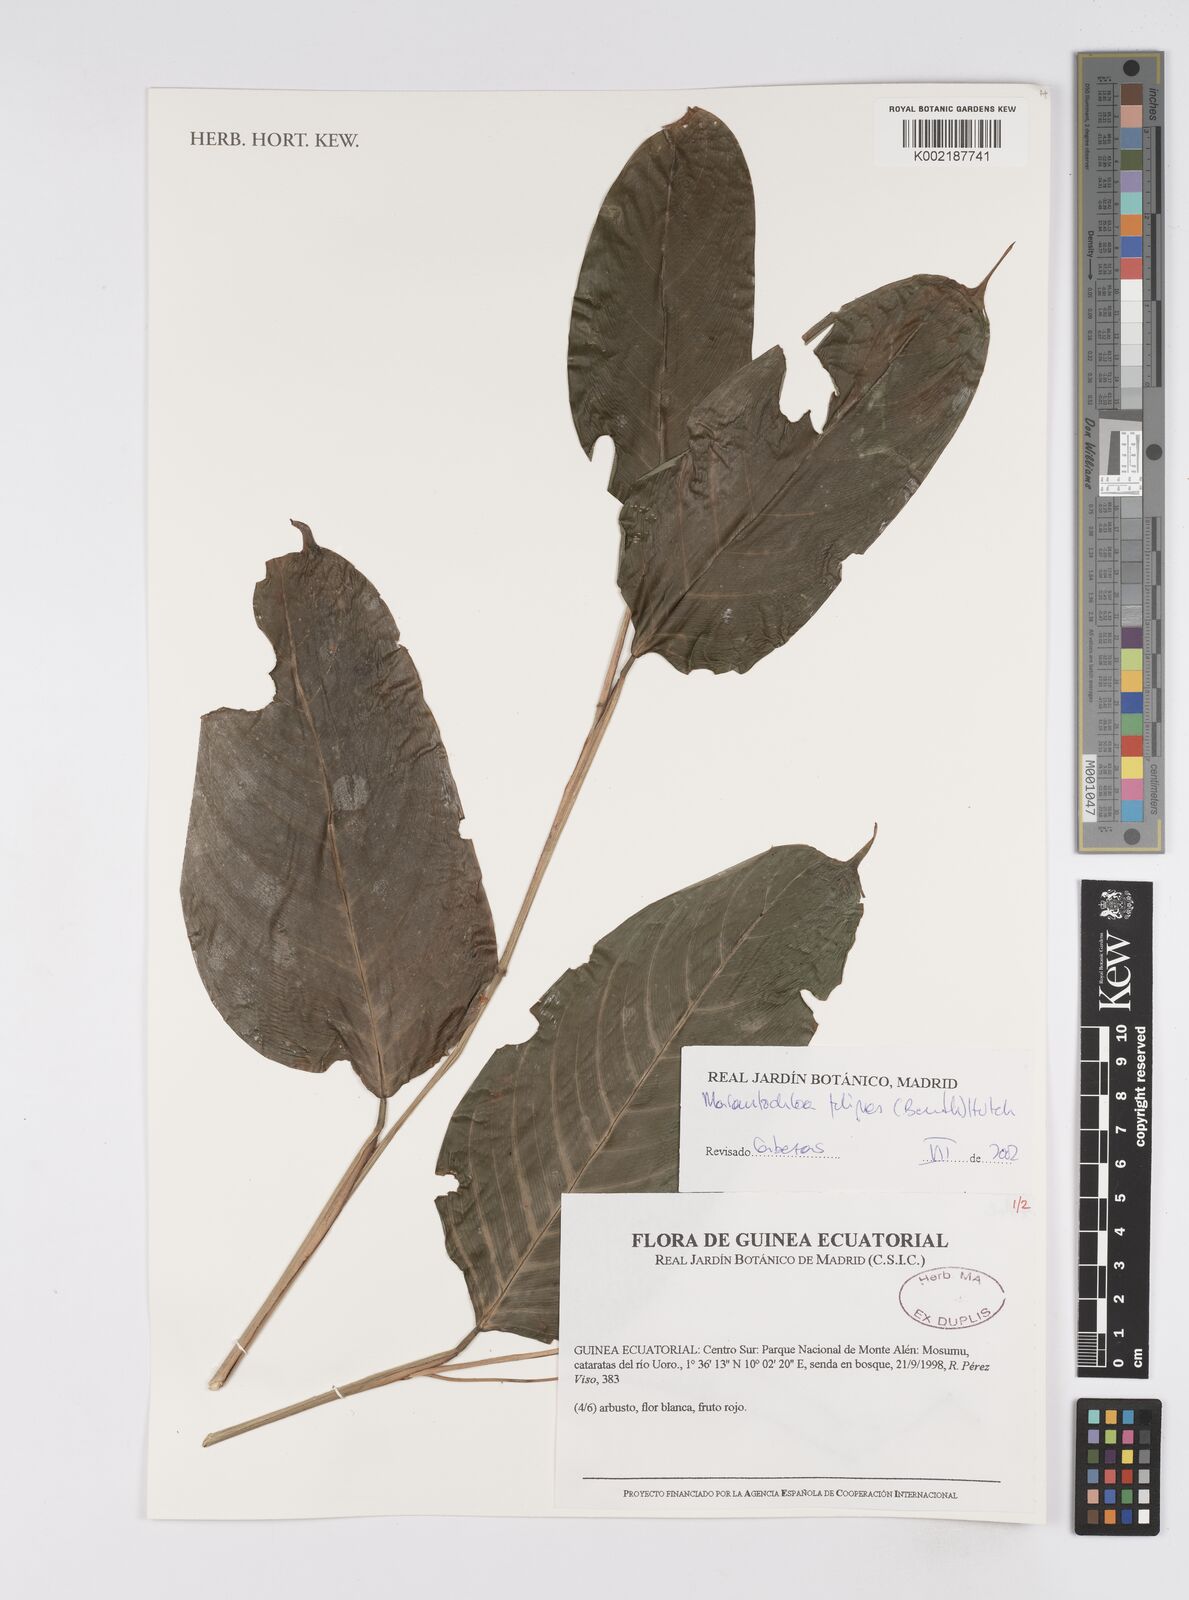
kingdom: Plantae
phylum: Tracheophyta
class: Liliopsida
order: Zingiberales
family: Marantaceae
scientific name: Marantaceae
